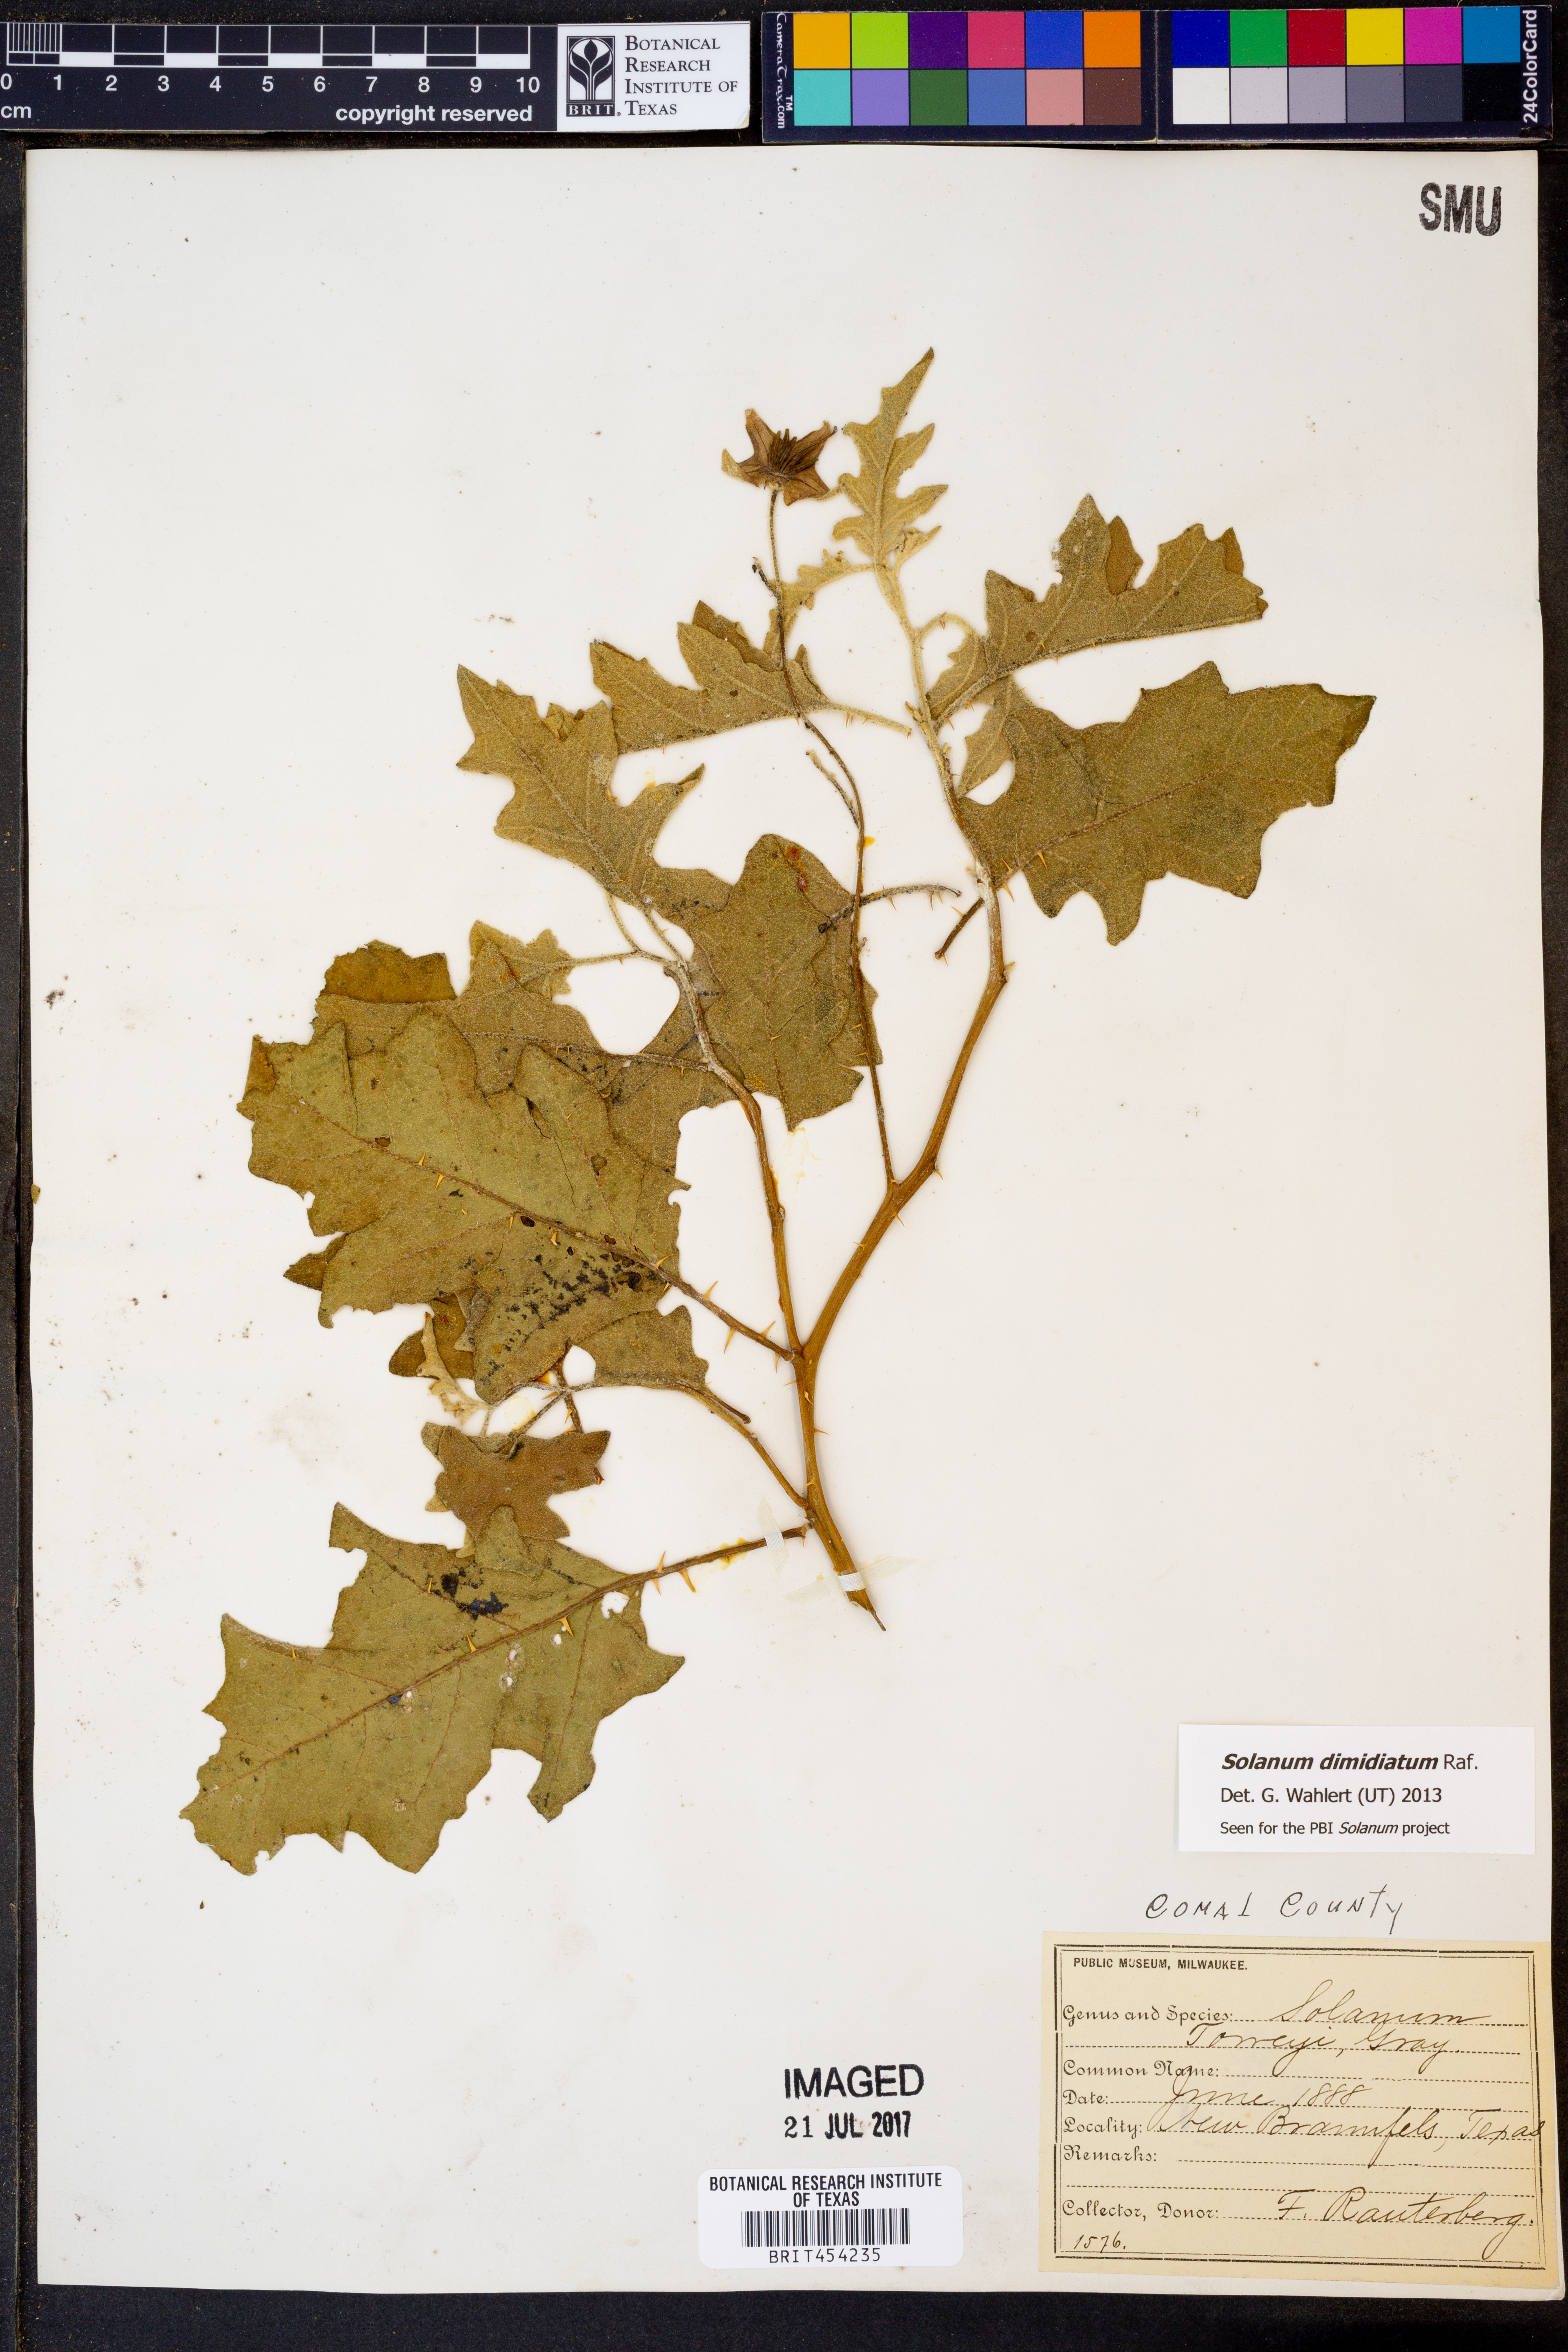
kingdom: Plantae
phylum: Tracheophyta
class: Magnoliopsida
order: Solanales
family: Solanaceae
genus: Solanum
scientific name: Solanum dimidiatum
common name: Carolina horse-nettle
